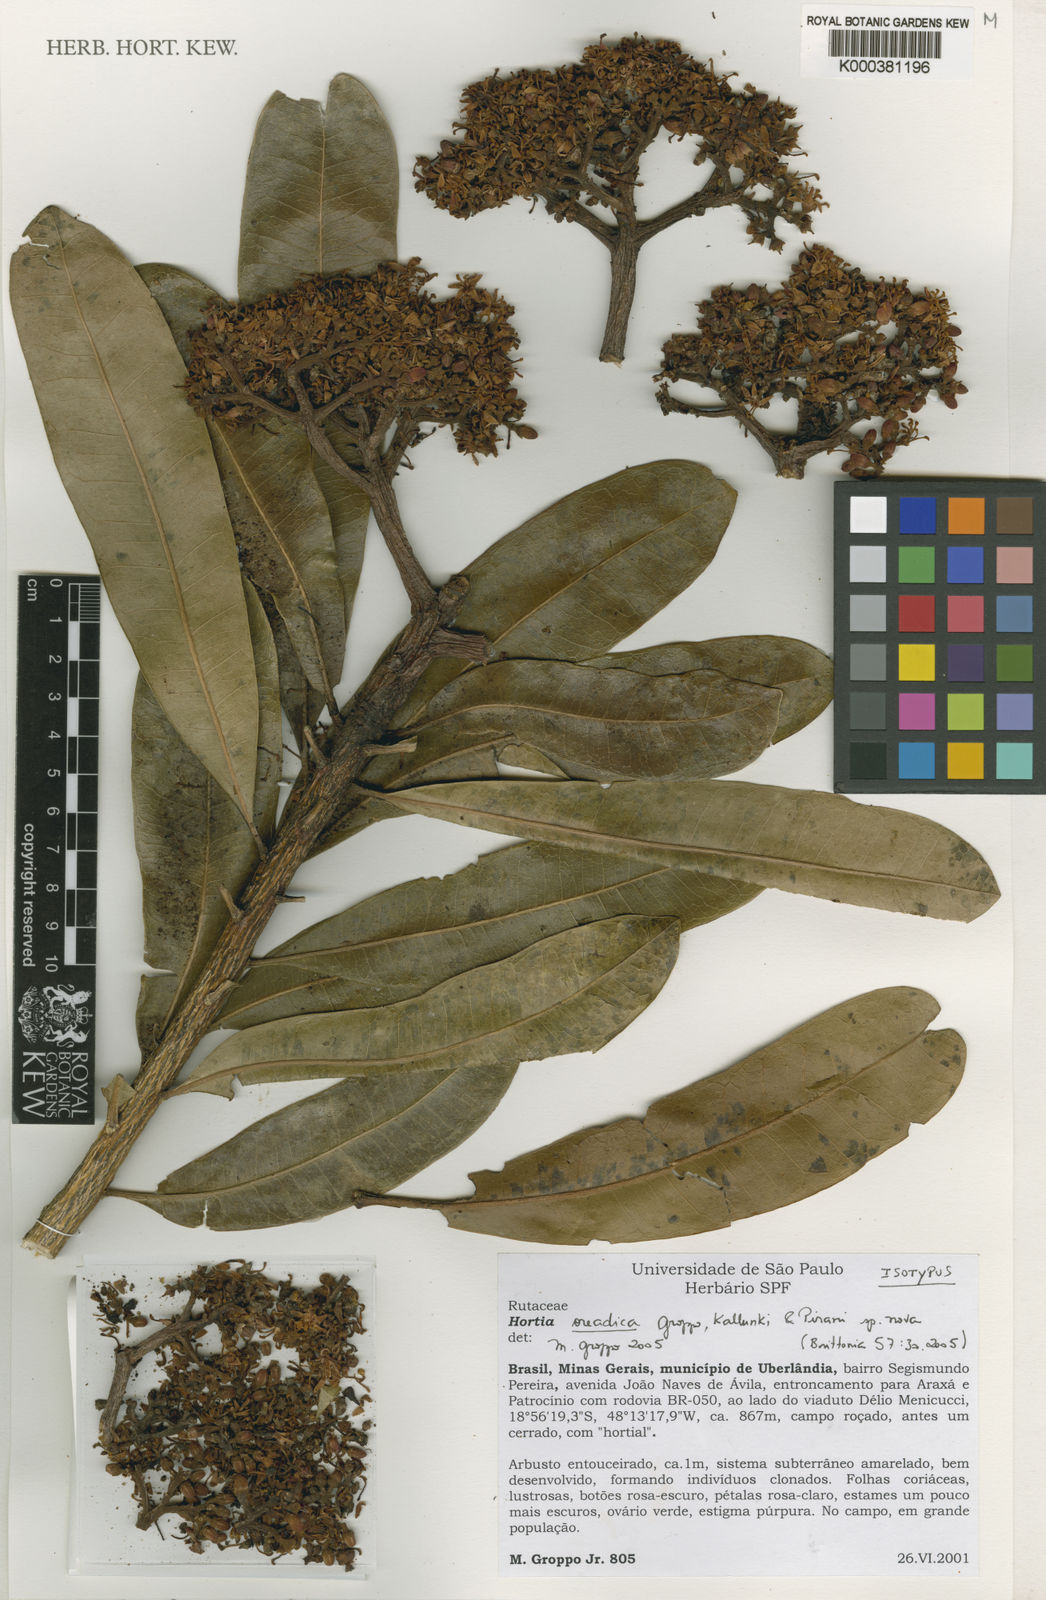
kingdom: Plantae
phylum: Tracheophyta
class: Magnoliopsida
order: Sapindales
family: Rutaceae
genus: Hortia
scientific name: Hortia oreadica
